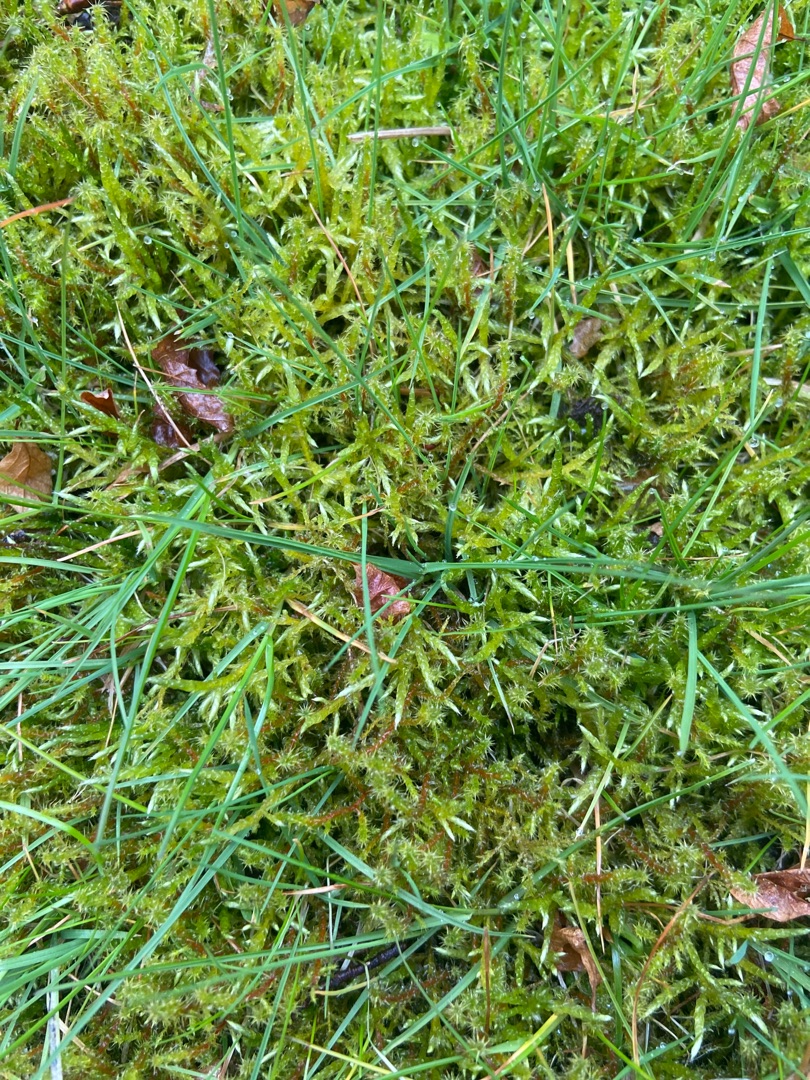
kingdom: Plantae
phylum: Bryophyta
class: Bryopsida
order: Hypnales
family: Hylocomiaceae
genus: Rhytidiadelphus
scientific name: Rhytidiadelphus squarrosus
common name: Plæne-kransemos
